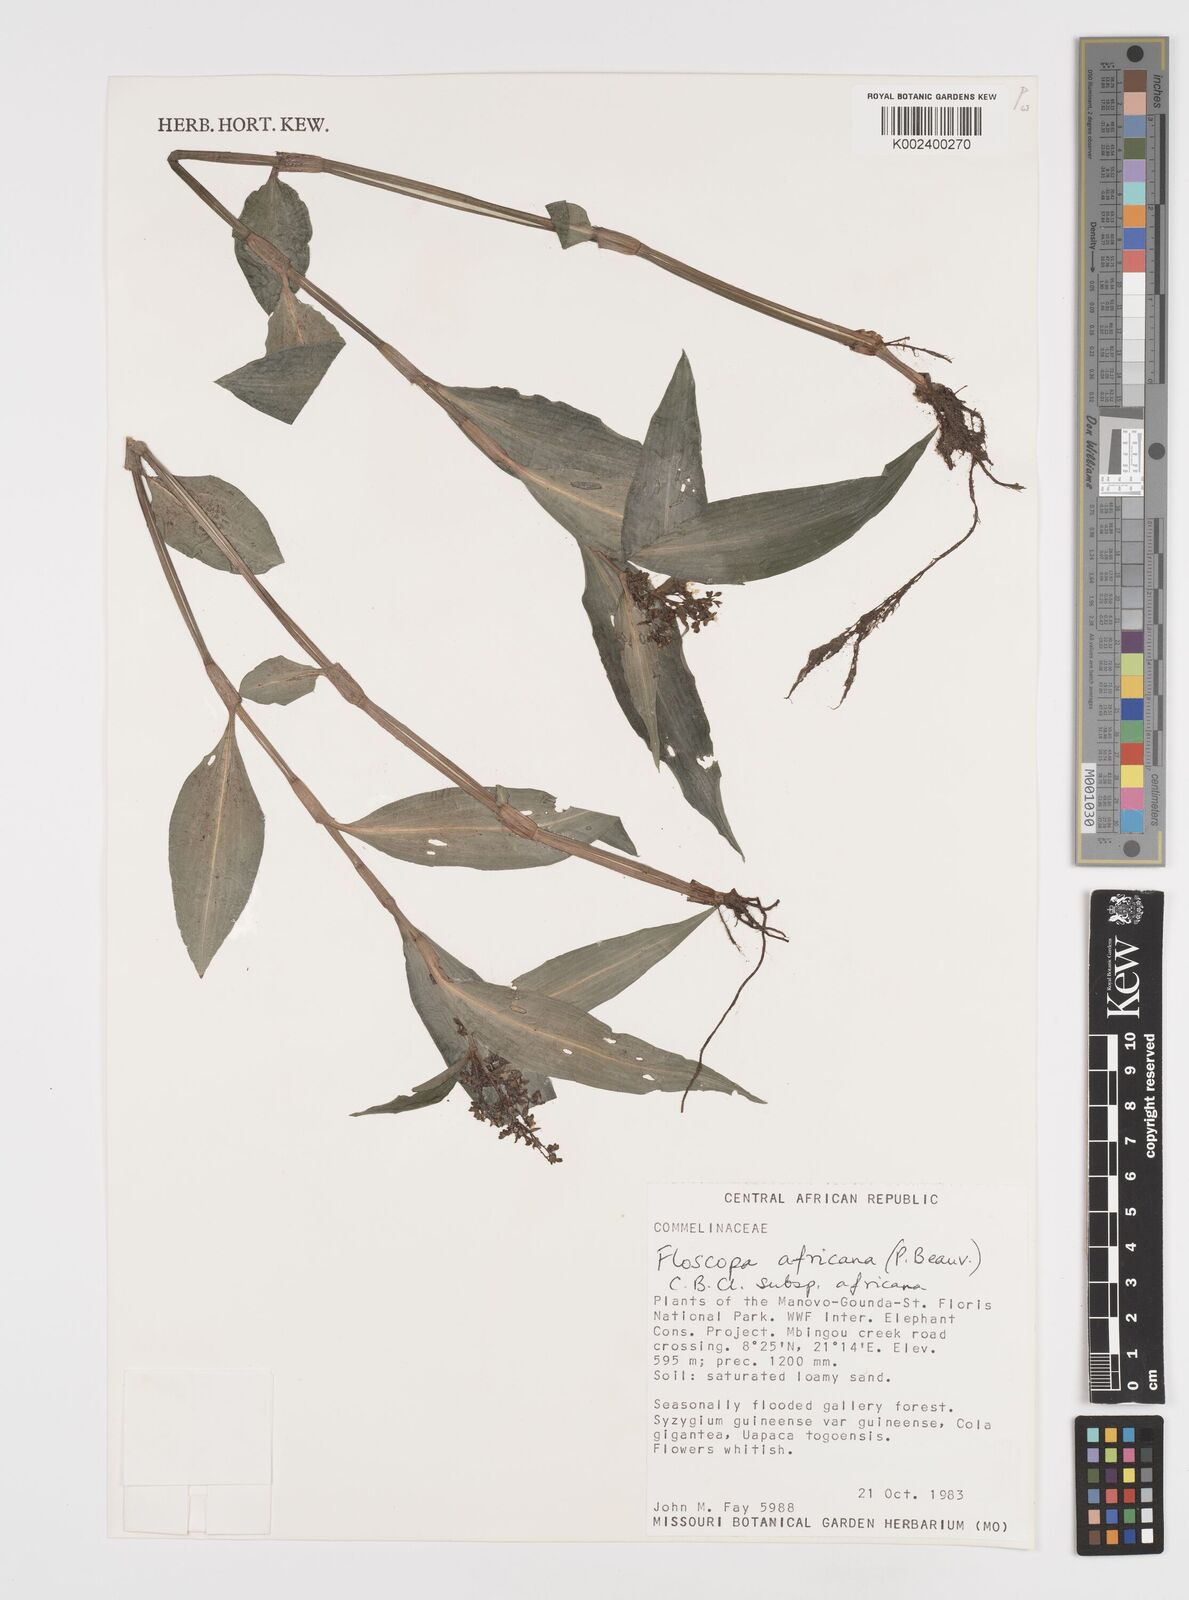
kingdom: Plantae
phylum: Tracheophyta
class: Liliopsida
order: Commelinales
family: Commelinaceae
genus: Floscopa
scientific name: Floscopa africana
